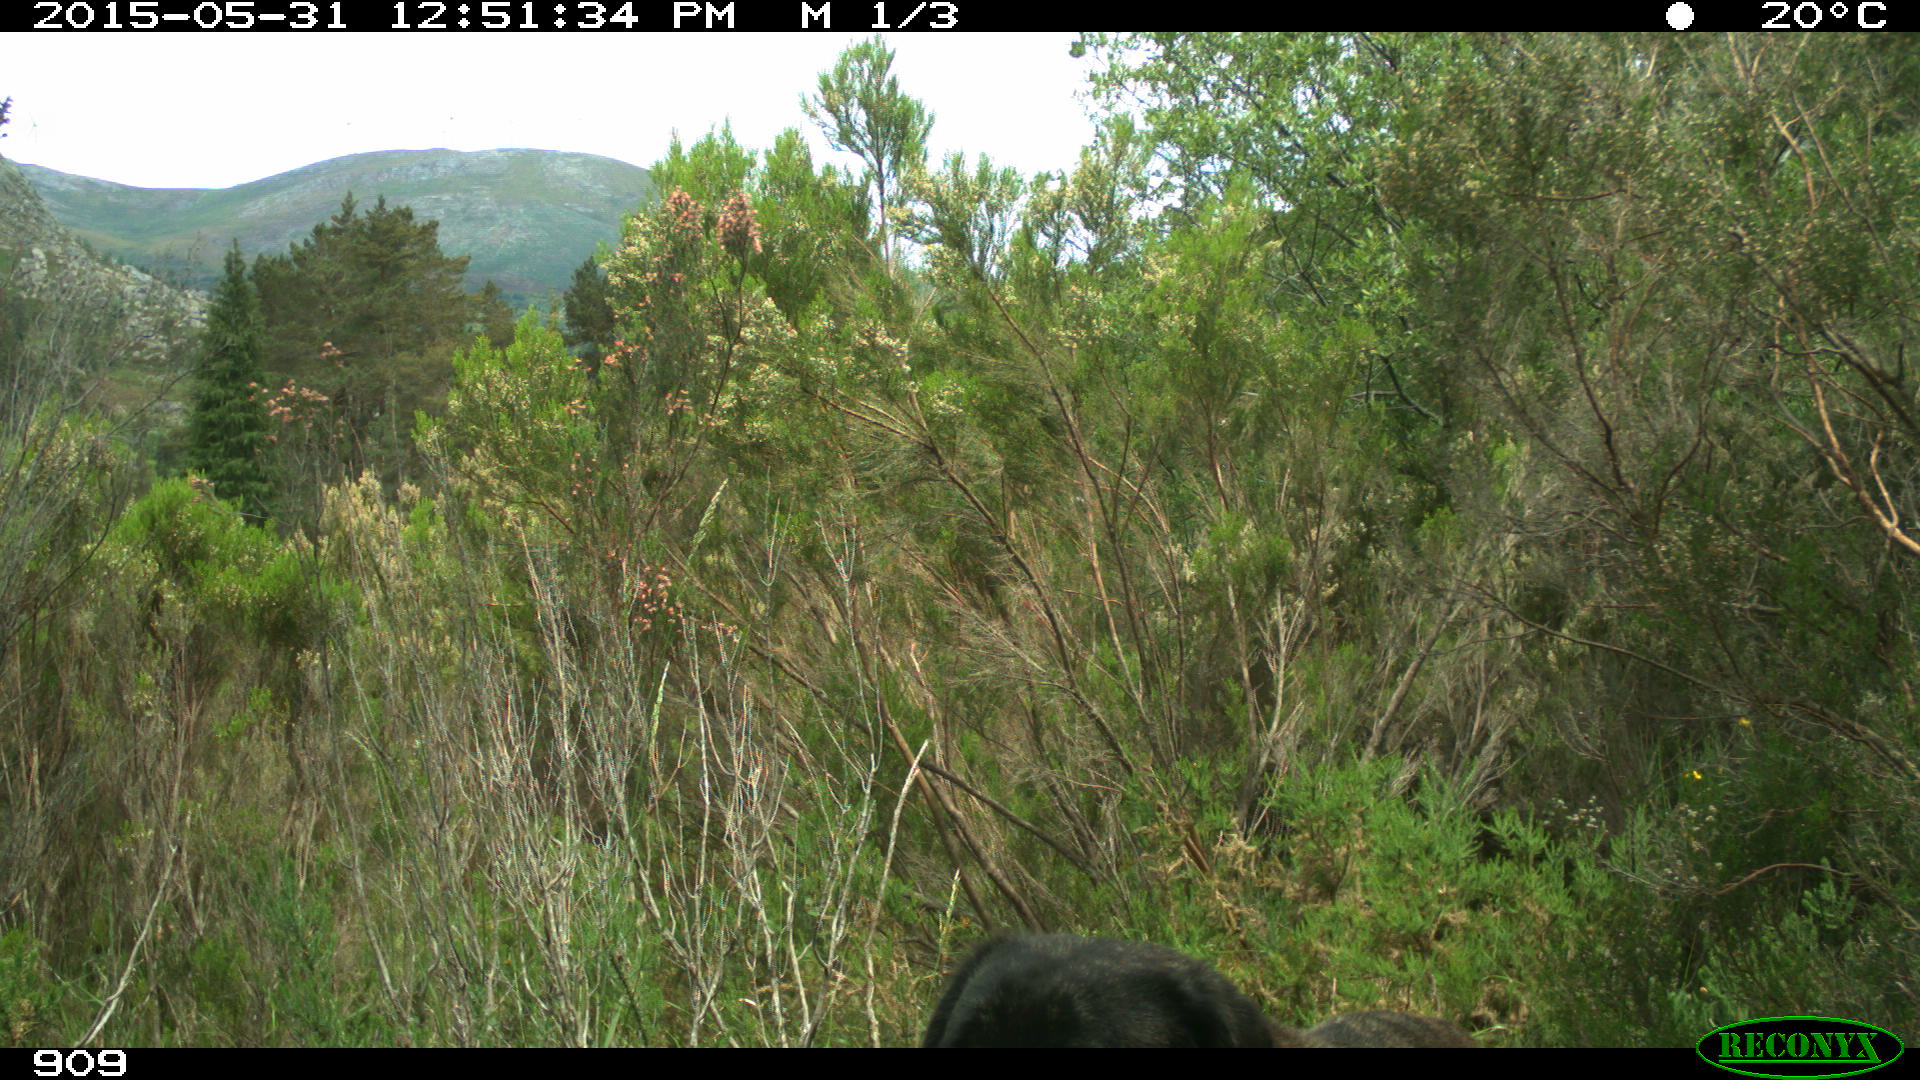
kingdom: Animalia
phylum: Chordata
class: Mammalia
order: Carnivora
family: Canidae
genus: Canis
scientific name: Canis lupus
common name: Gray wolf
